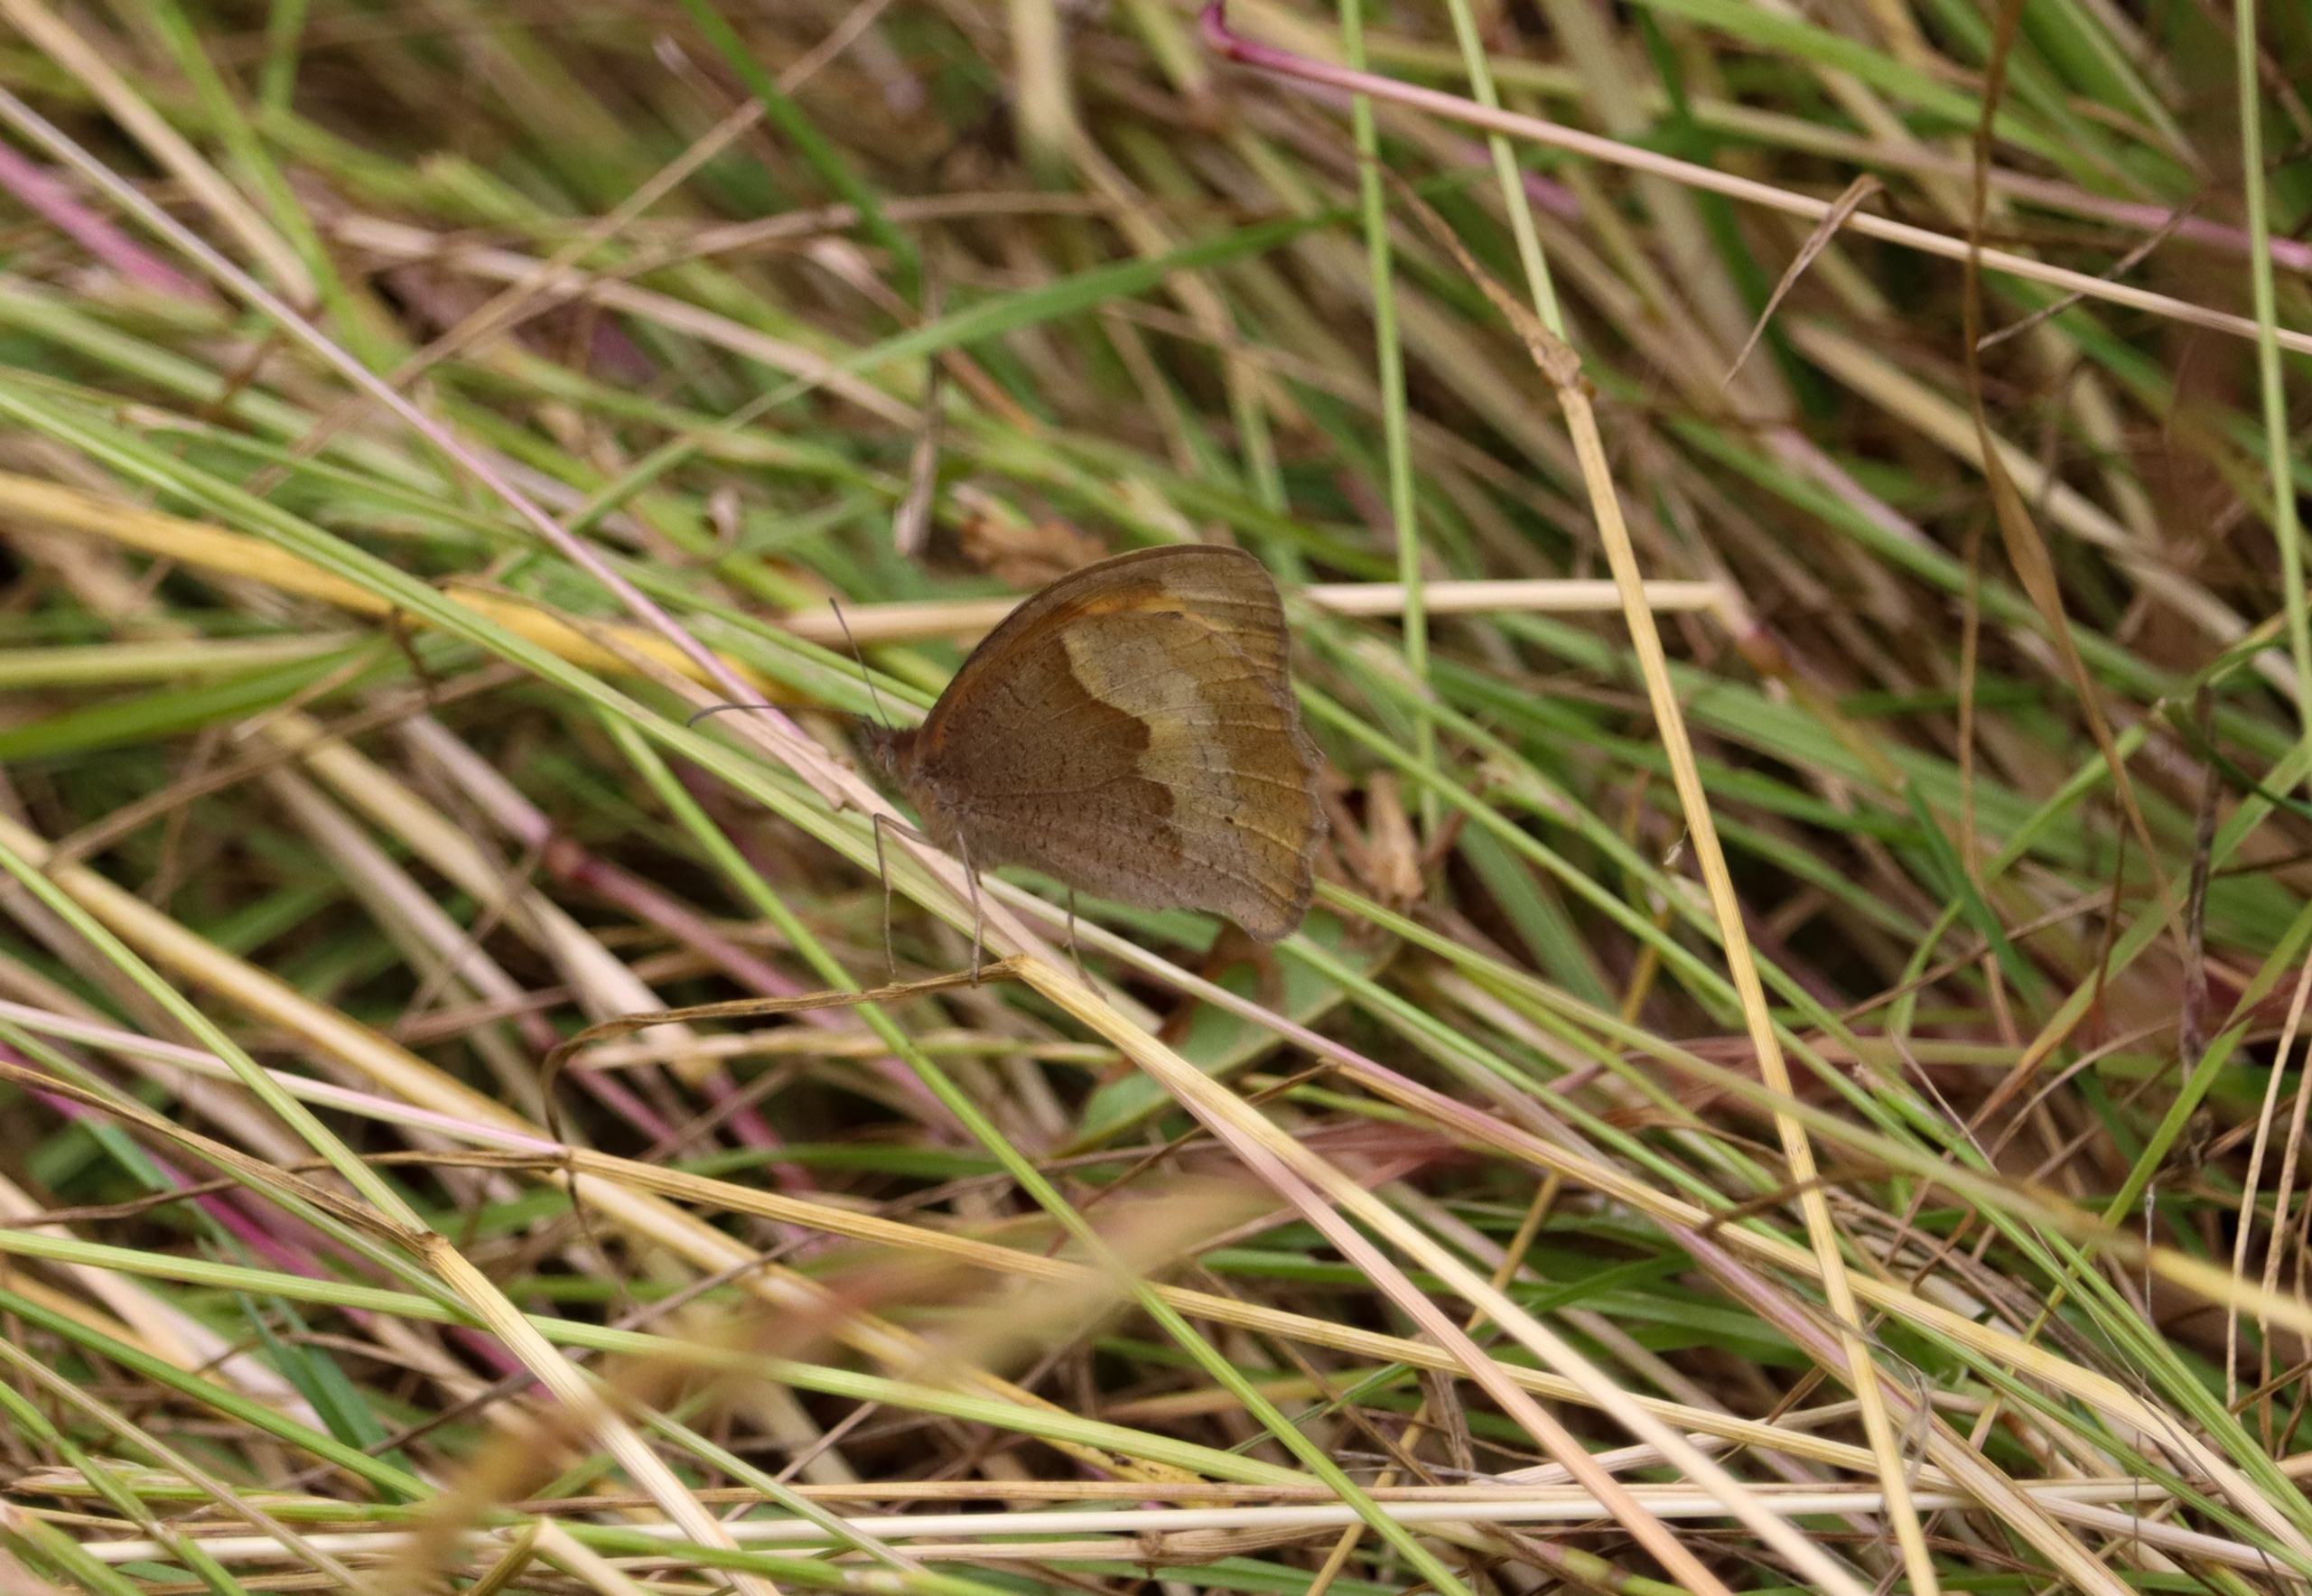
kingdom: Animalia
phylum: Arthropoda
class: Insecta
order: Lepidoptera
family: Nymphalidae
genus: Maniola
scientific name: Maniola jurtina
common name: Græsrandøje
